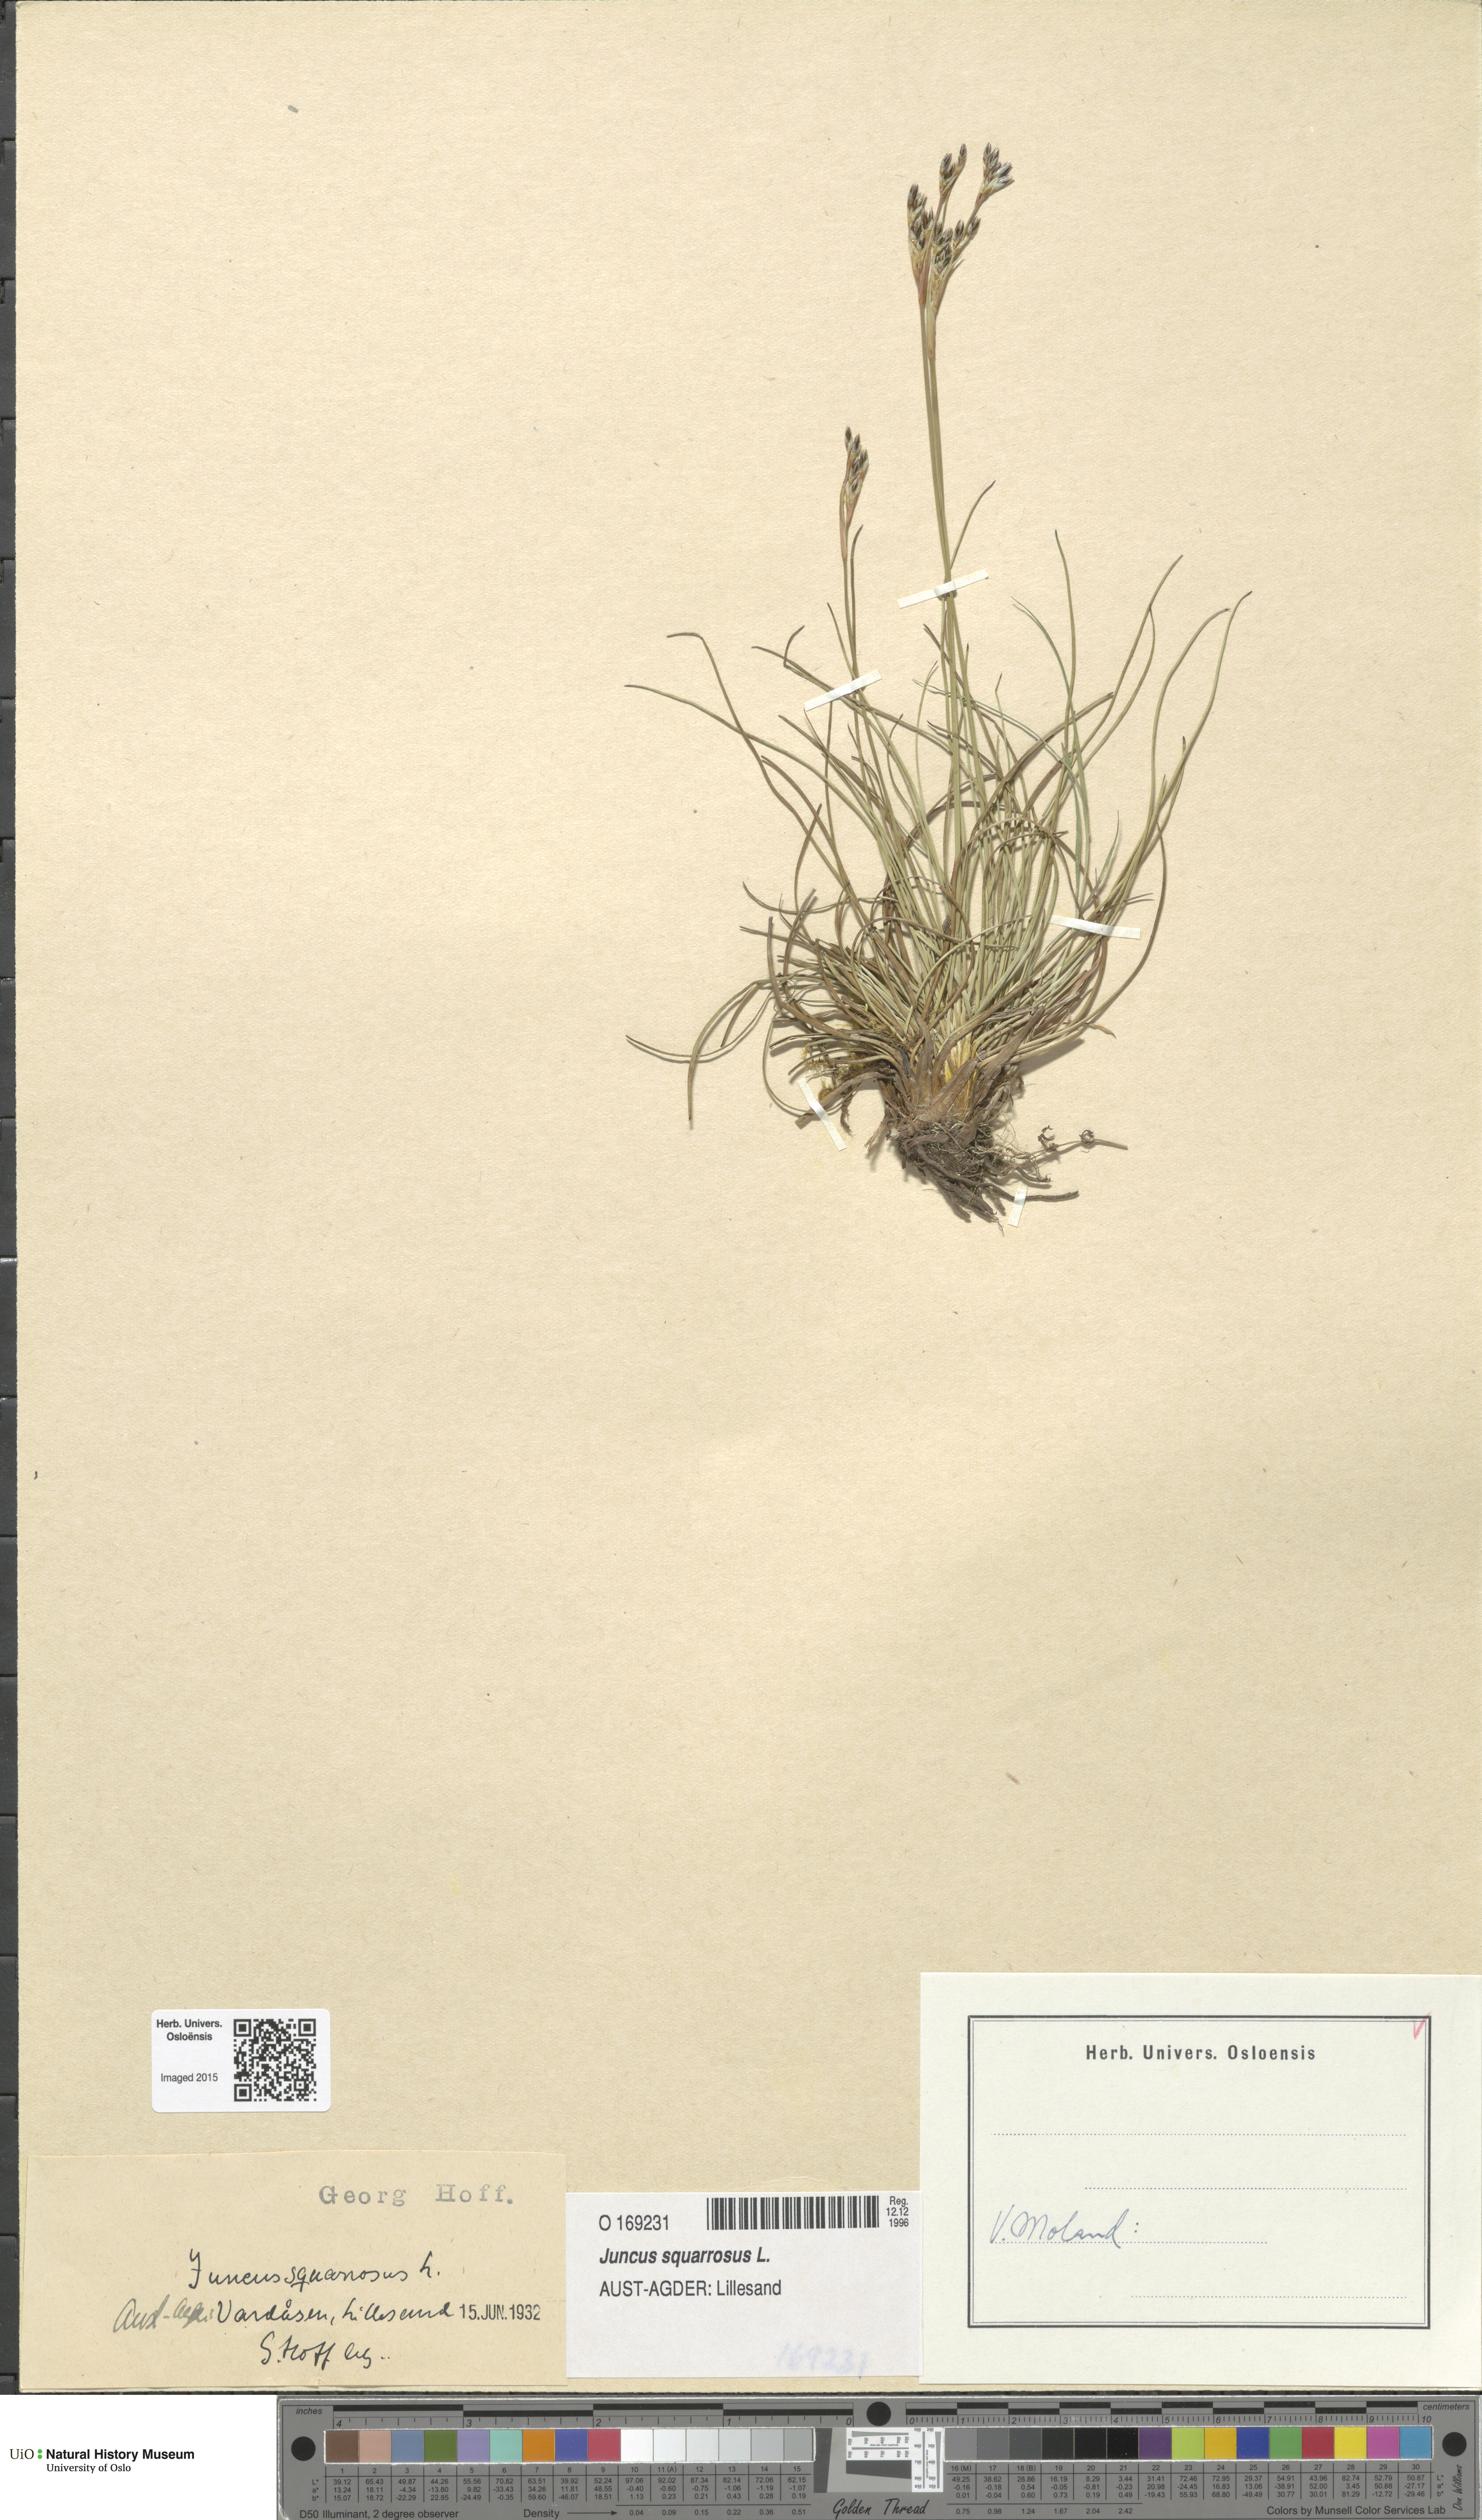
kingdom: Plantae
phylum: Tracheophyta
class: Liliopsida
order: Poales
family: Juncaceae
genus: Juncus
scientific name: Juncus squarrosus
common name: Heath rush
